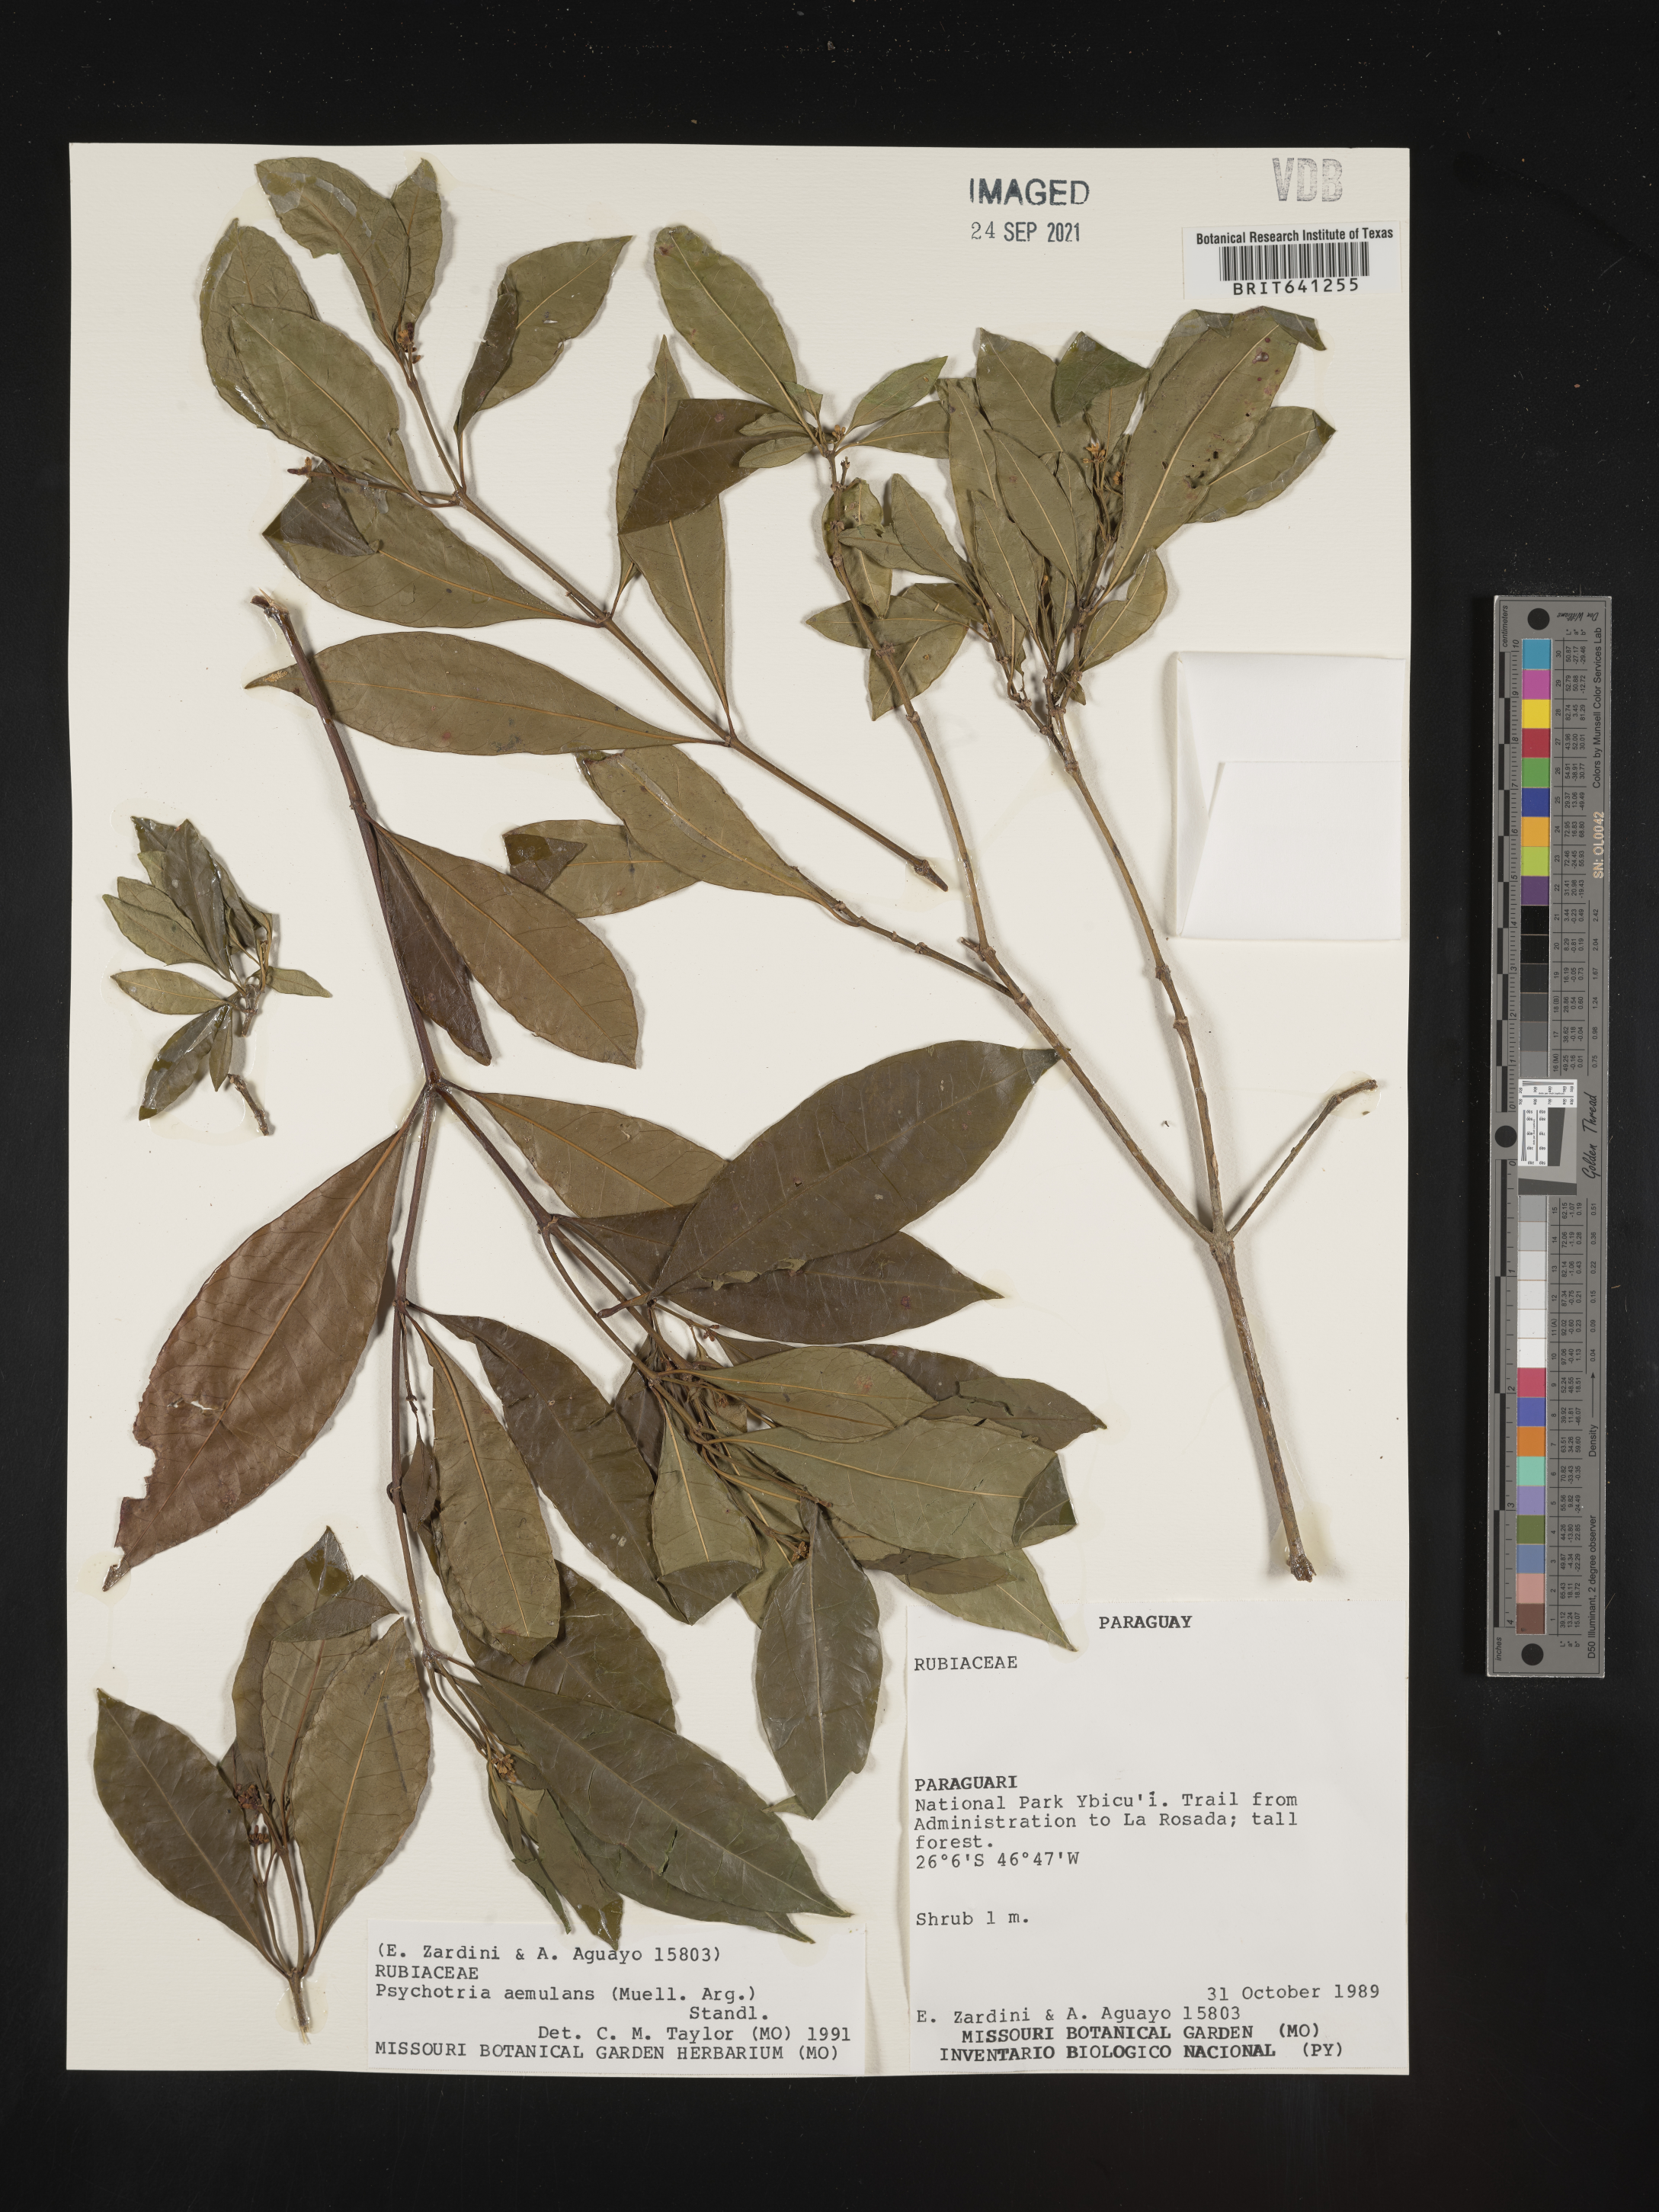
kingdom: Plantae
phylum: Tracheophyta
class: Magnoliopsida
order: Gentianales
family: Rubiaceae
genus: Psychotria
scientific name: Psychotria
